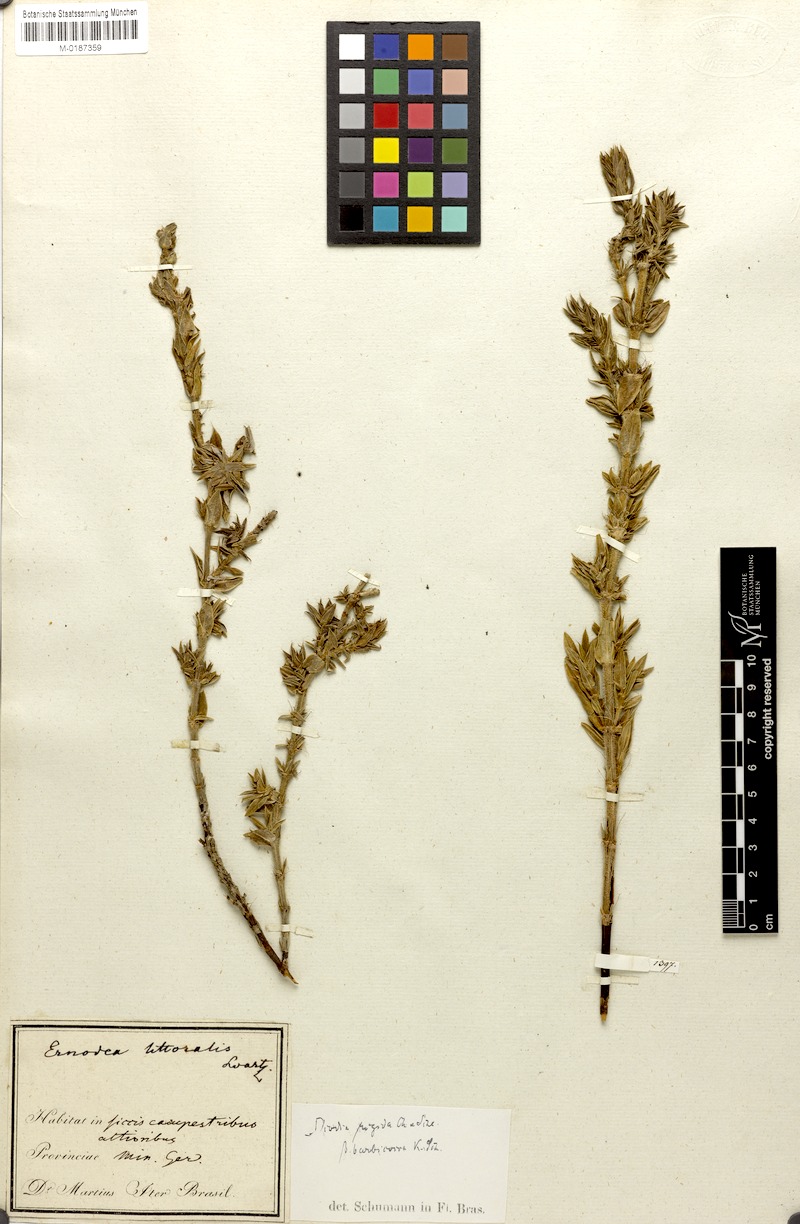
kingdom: Plantae
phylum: Tracheophyta
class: Magnoliopsida
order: Gentianales
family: Rubiaceae
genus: Hexasepalum
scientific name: Hexasepalum apiculatum
